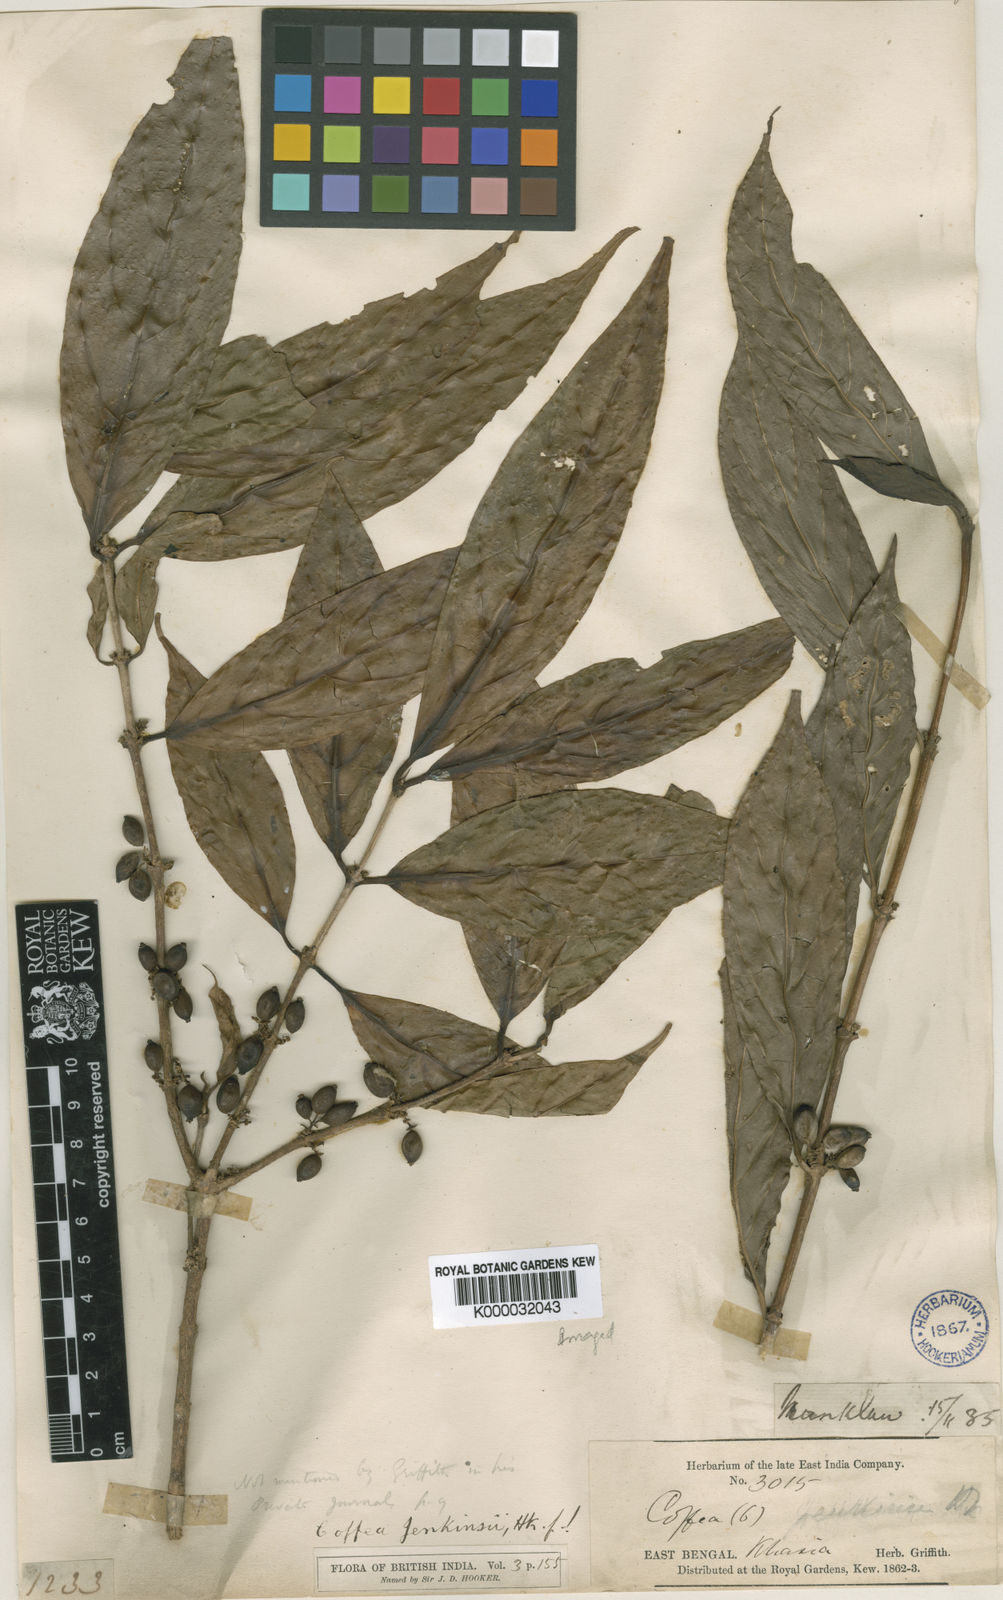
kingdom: Plantae
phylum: Tracheophyta
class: Magnoliopsida
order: Gentianales
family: Rubiaceae
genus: Nostolachma
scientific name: Nostolachma jenkinsii
